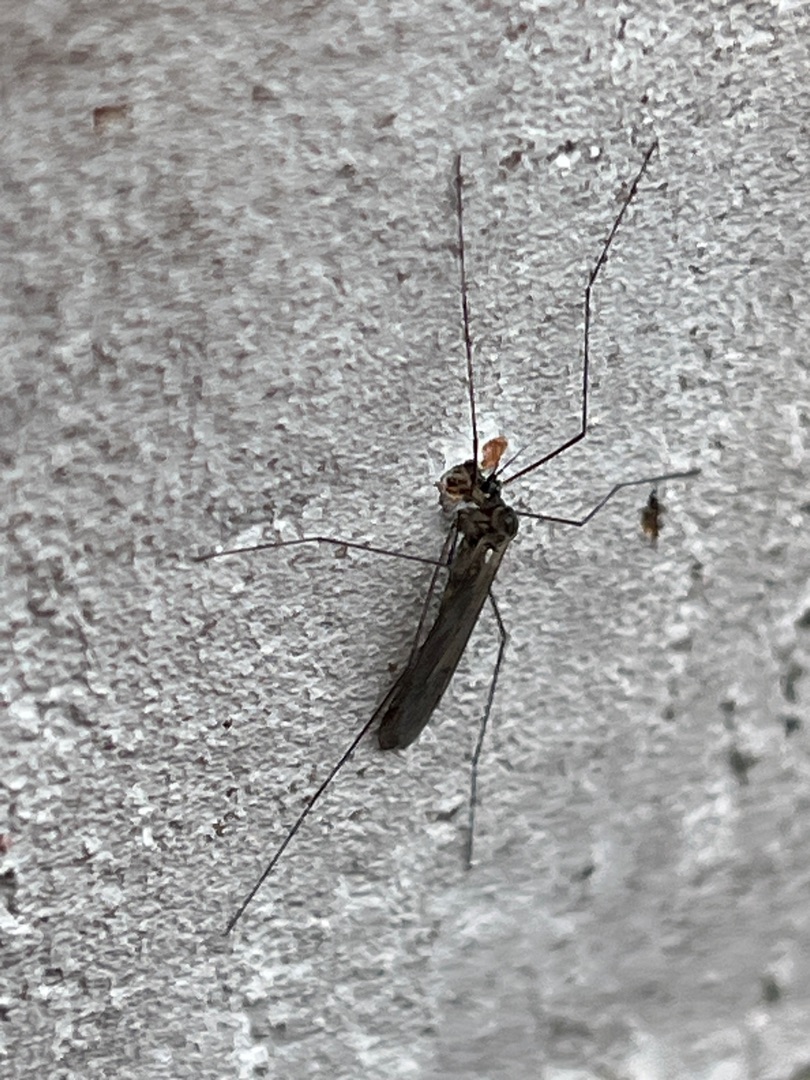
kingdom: Animalia
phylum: Arthropoda
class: Insecta
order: Diptera
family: Trichoceridae
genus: Trichocera
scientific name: Trichocera
